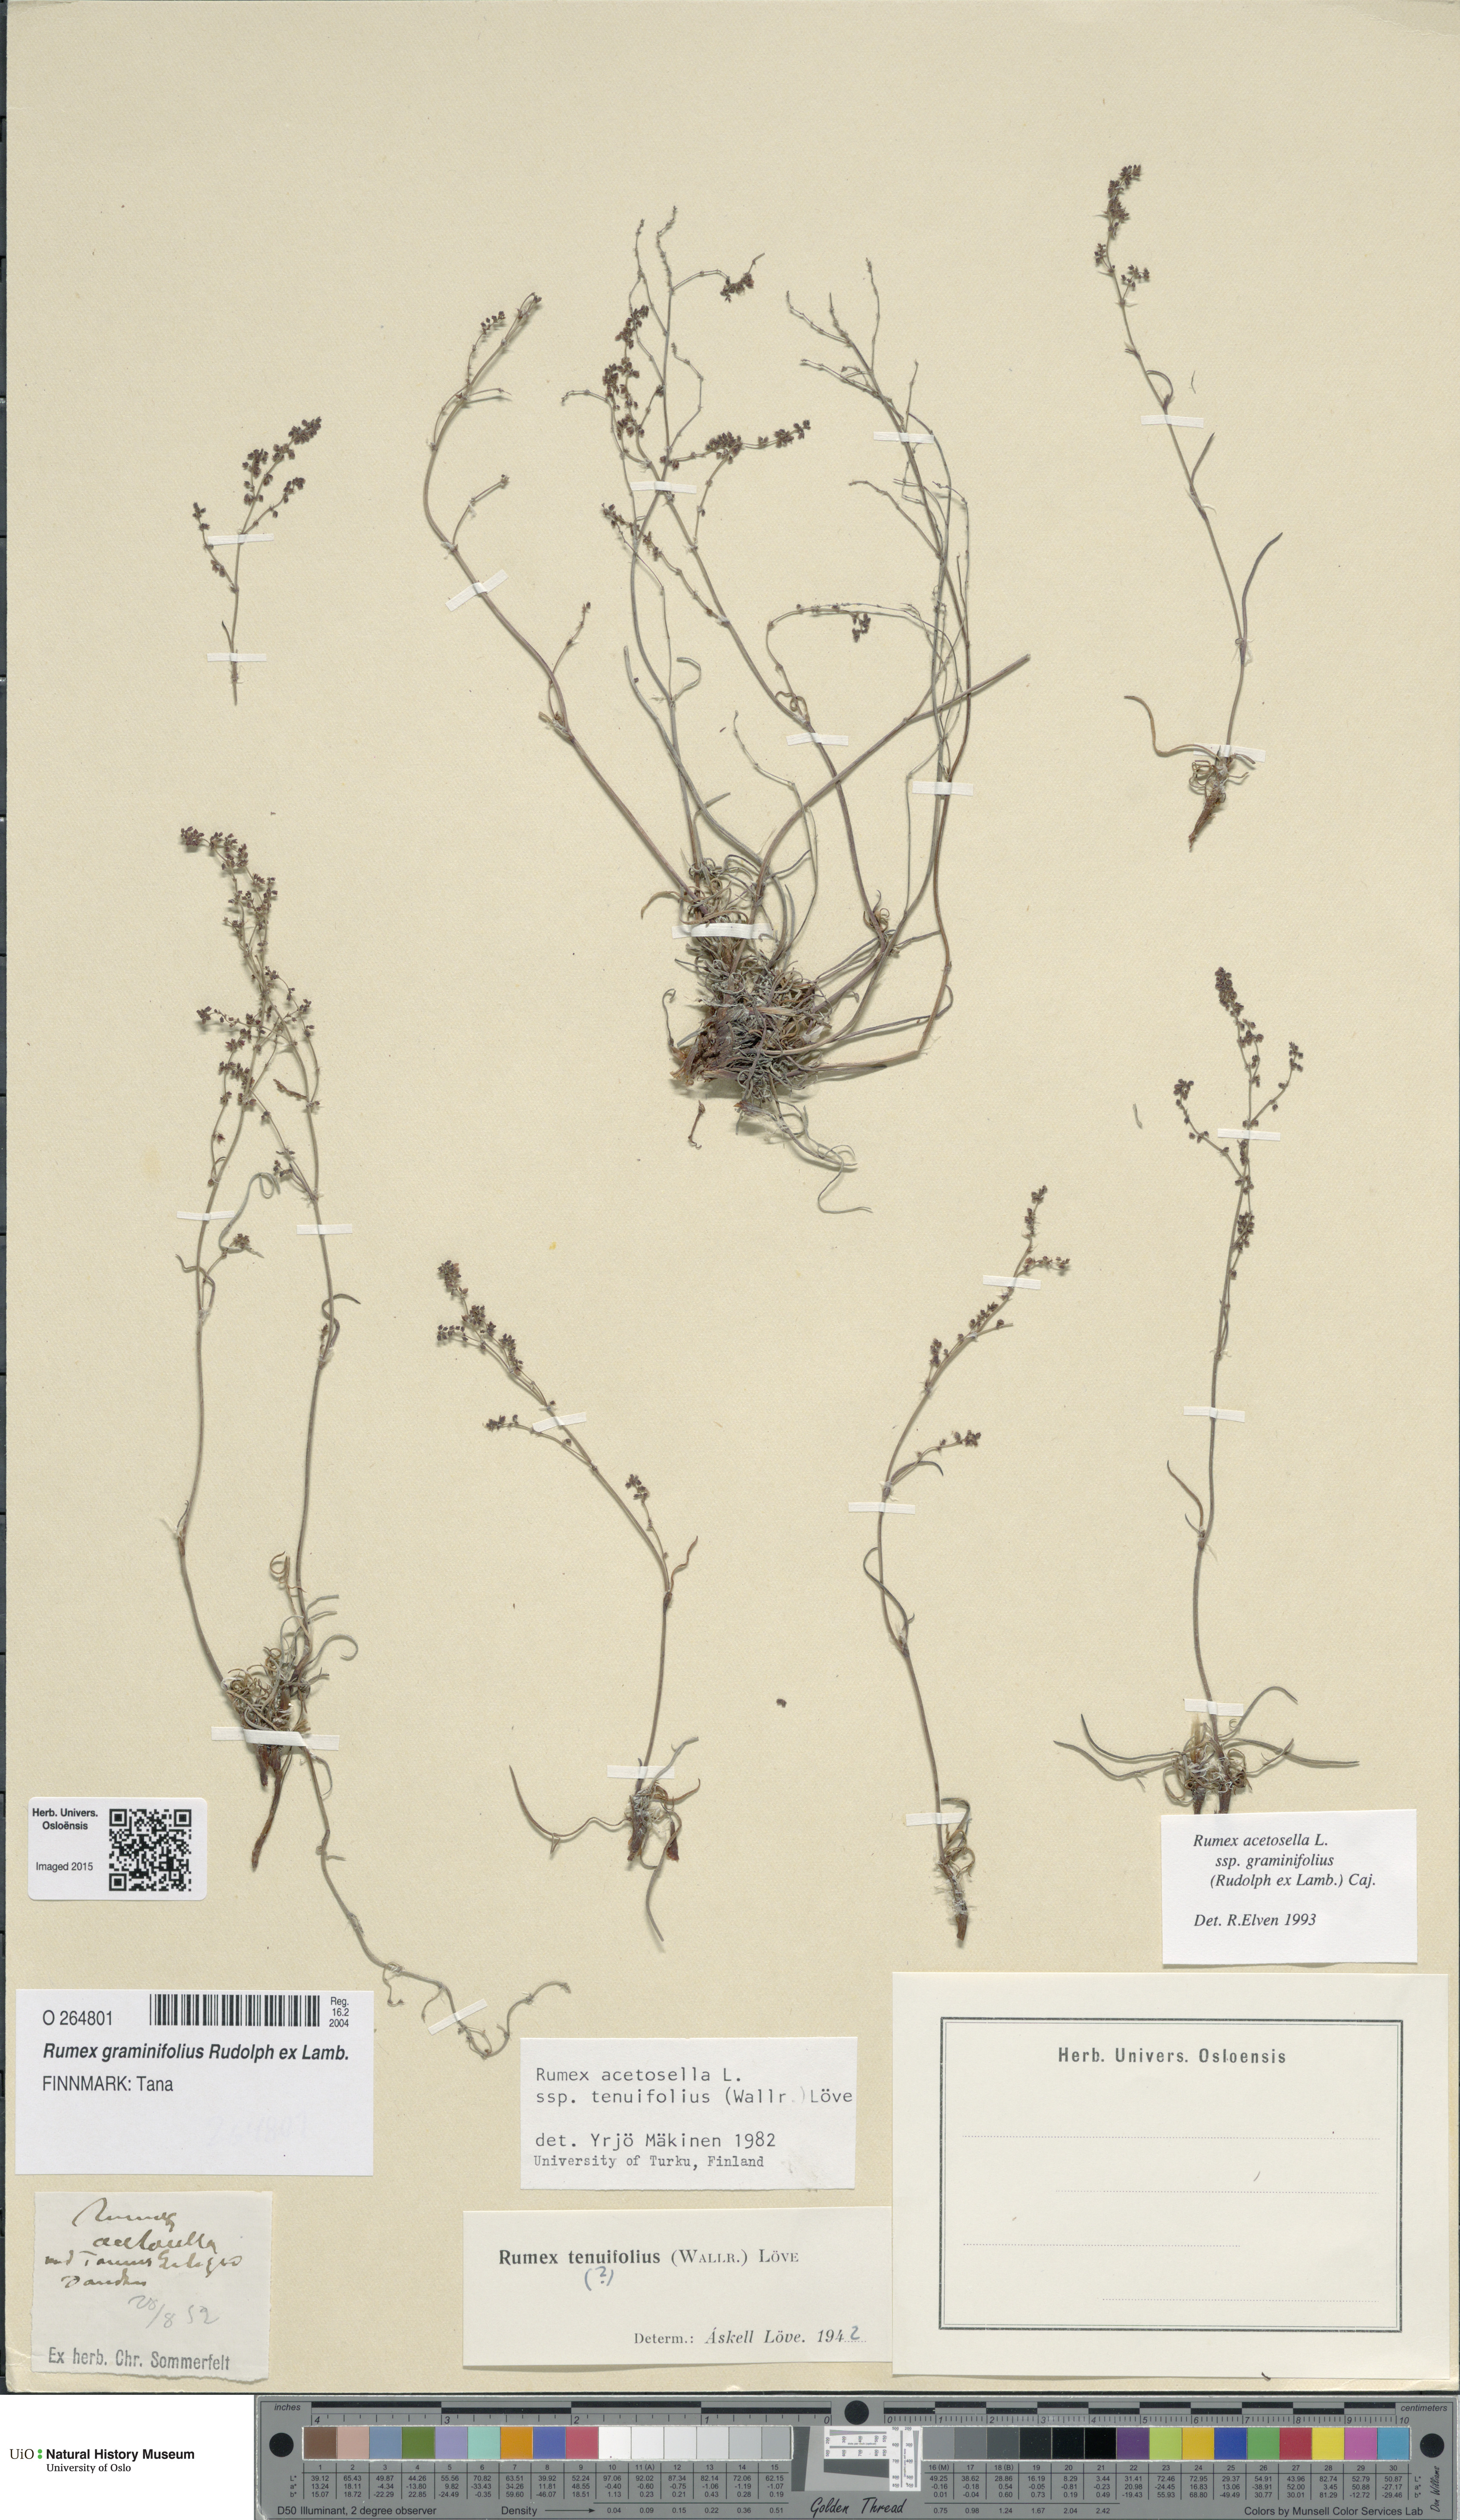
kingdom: Plantae
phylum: Tracheophyta
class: Magnoliopsida
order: Caryophyllales
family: Polygonaceae
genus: Rumex
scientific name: Rumex graminifolius
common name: Grass-leaved sorrel
